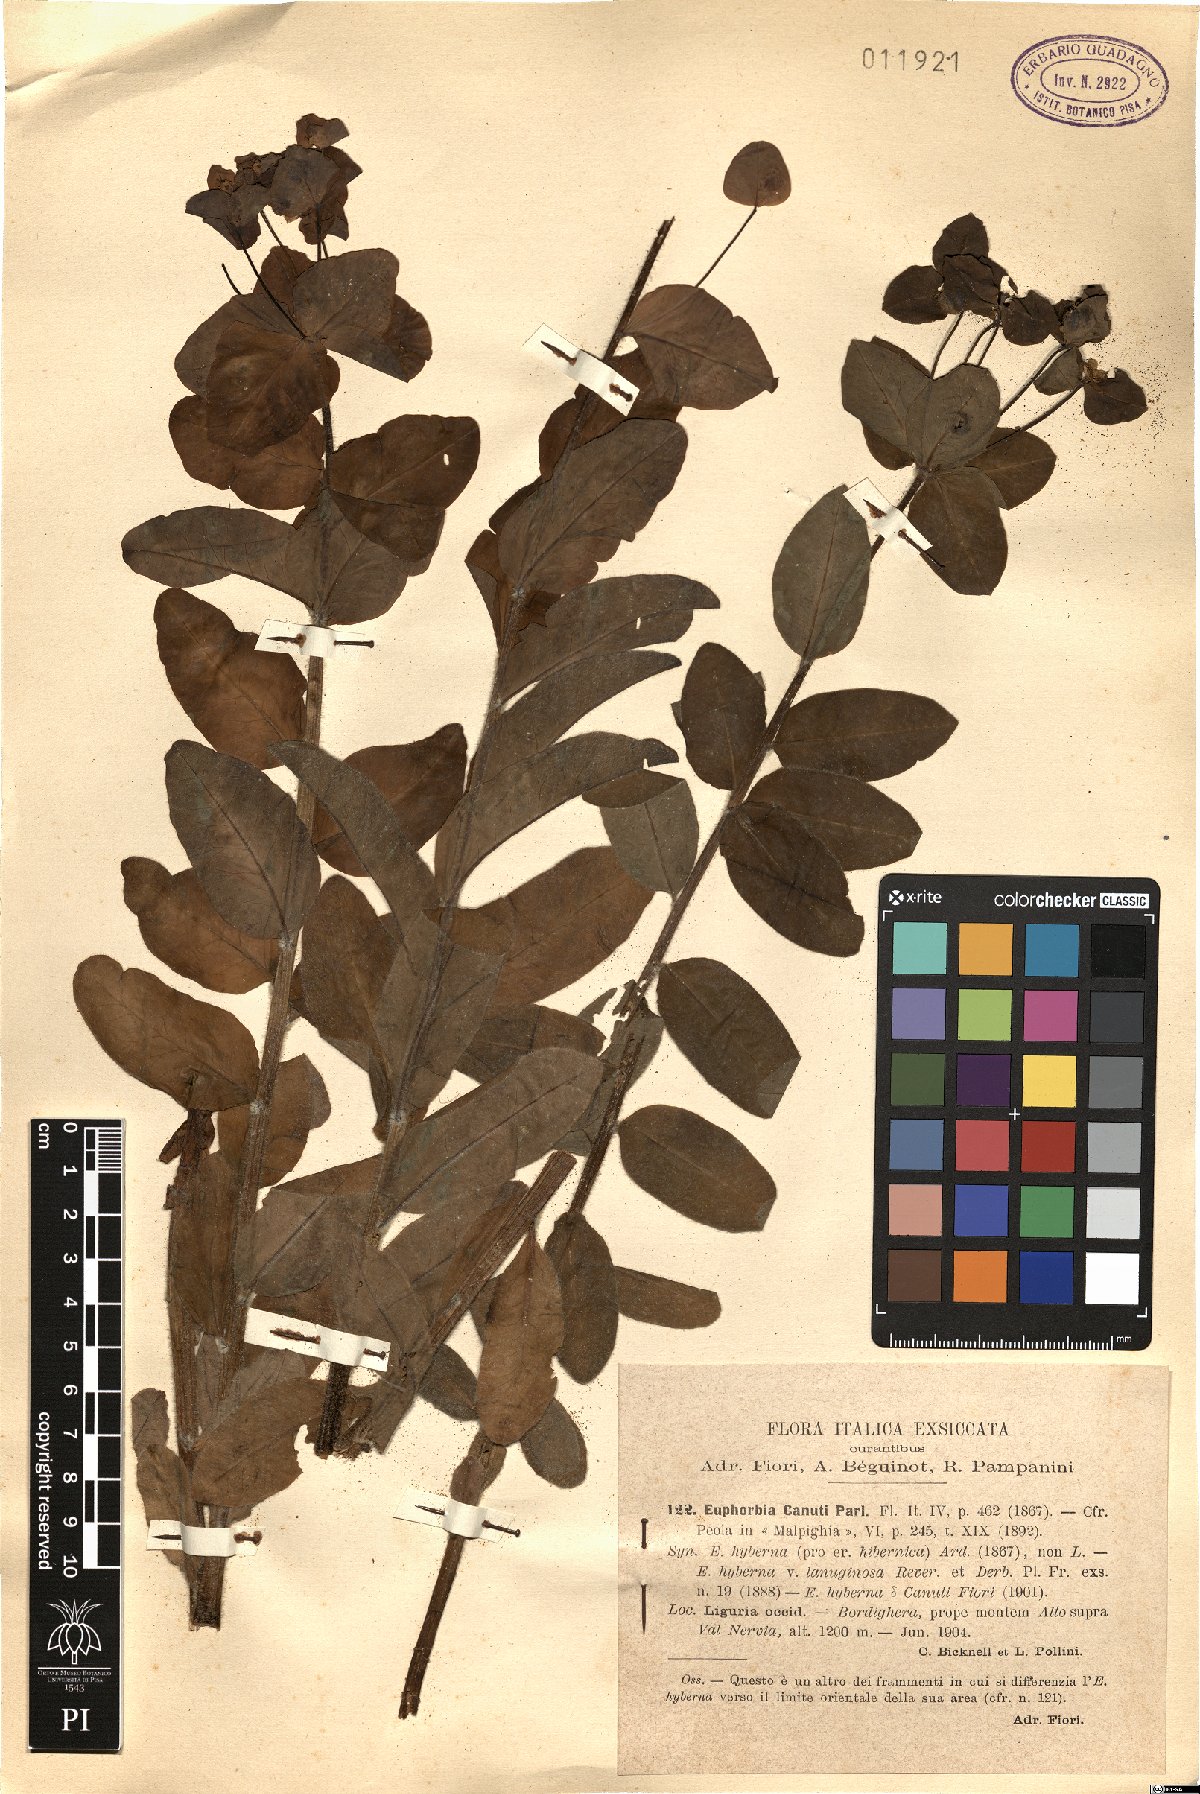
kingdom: Plantae
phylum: Tracheophyta
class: Magnoliopsida
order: Malpighiales
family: Euphorbiaceae
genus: Euphorbia
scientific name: Euphorbia canuti
